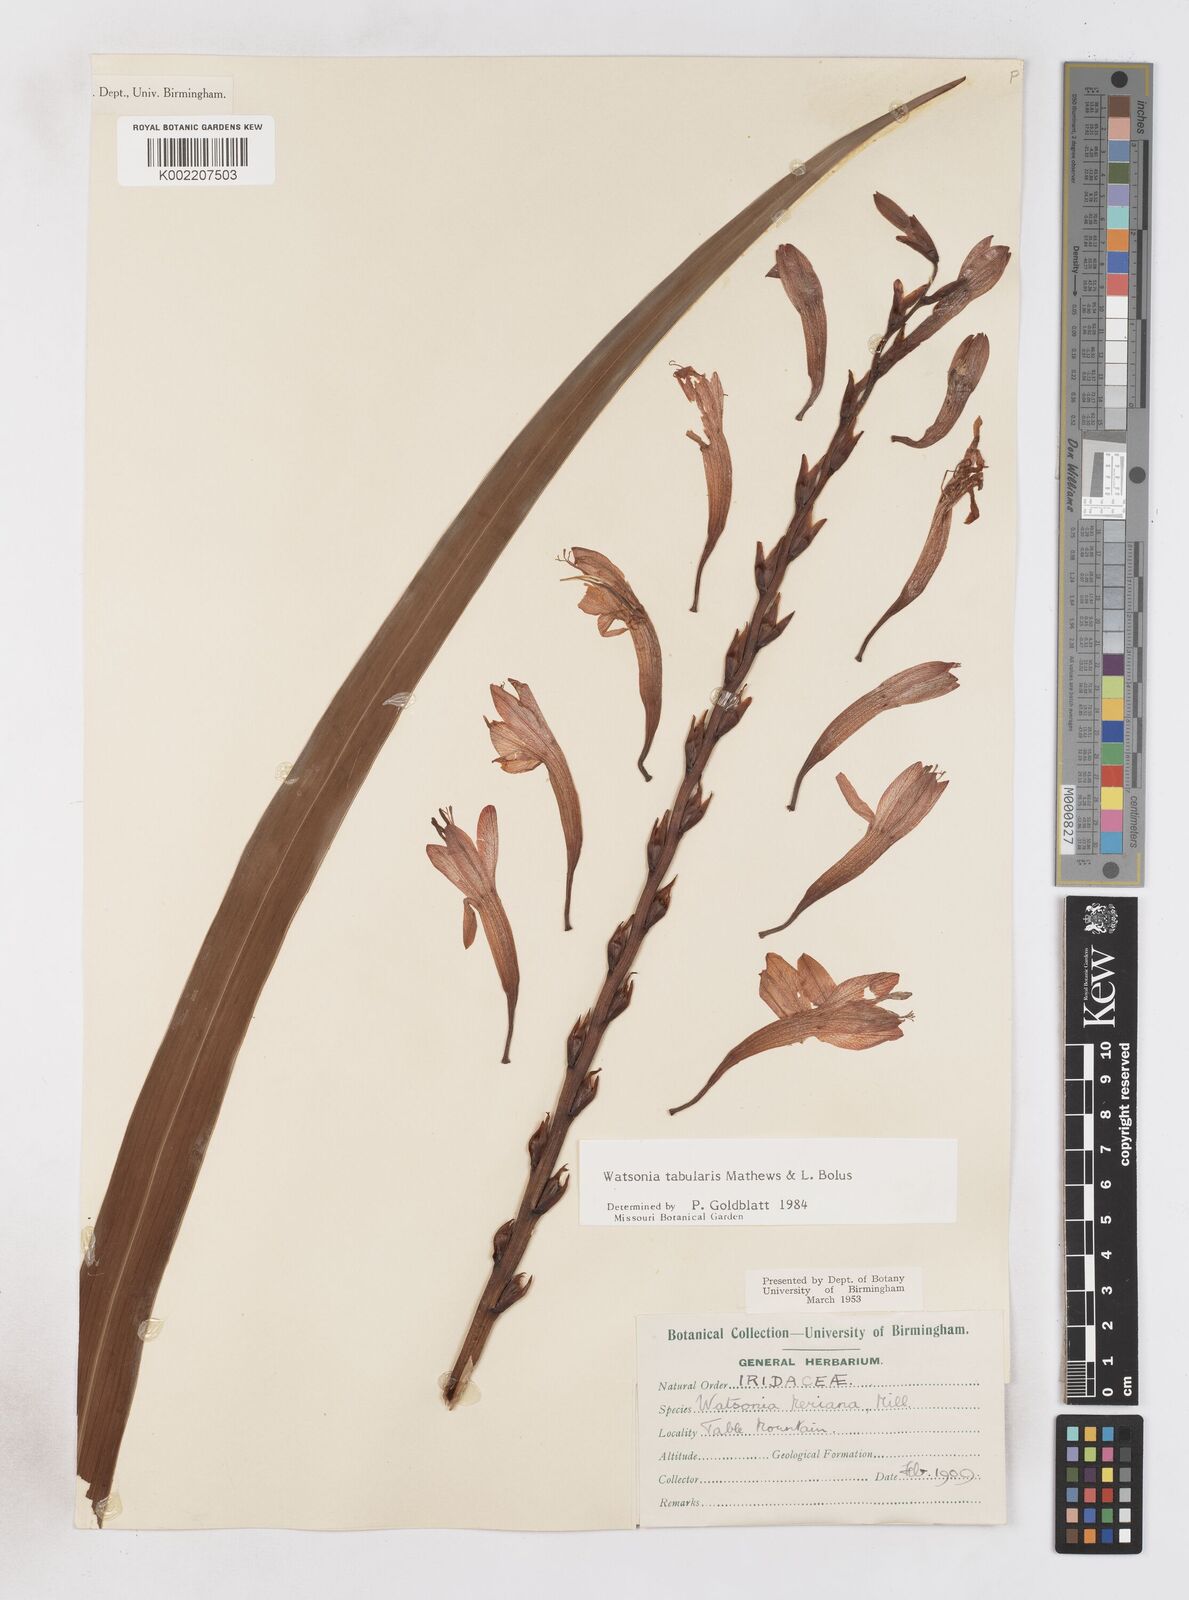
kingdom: Plantae
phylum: Tracheophyta
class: Liliopsida
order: Asparagales
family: Iridaceae
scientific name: Iridaceae
